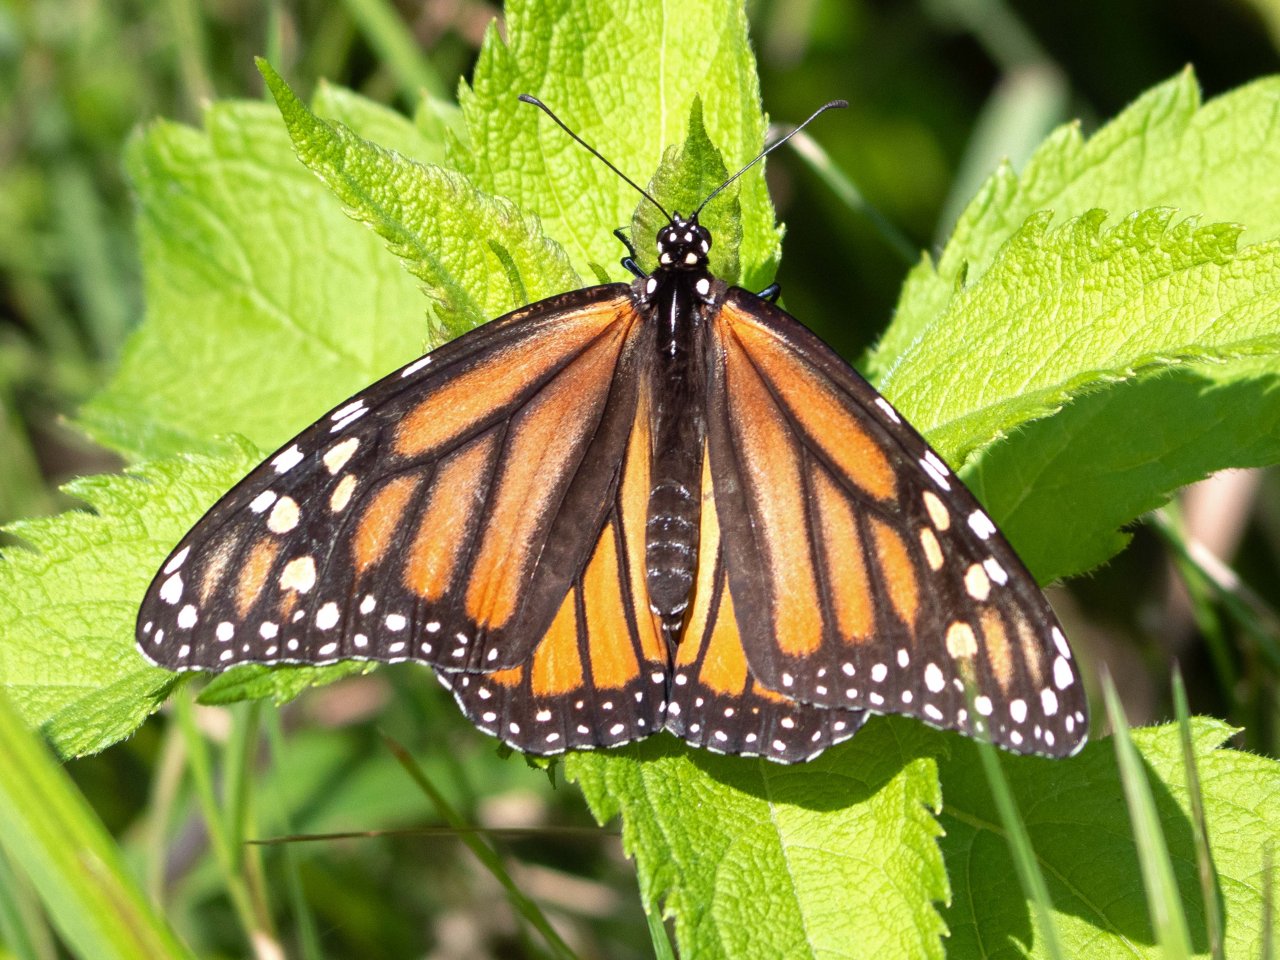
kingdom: Animalia
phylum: Arthropoda
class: Insecta
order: Lepidoptera
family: Nymphalidae
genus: Danaus
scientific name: Danaus plexippus
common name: Monarch
